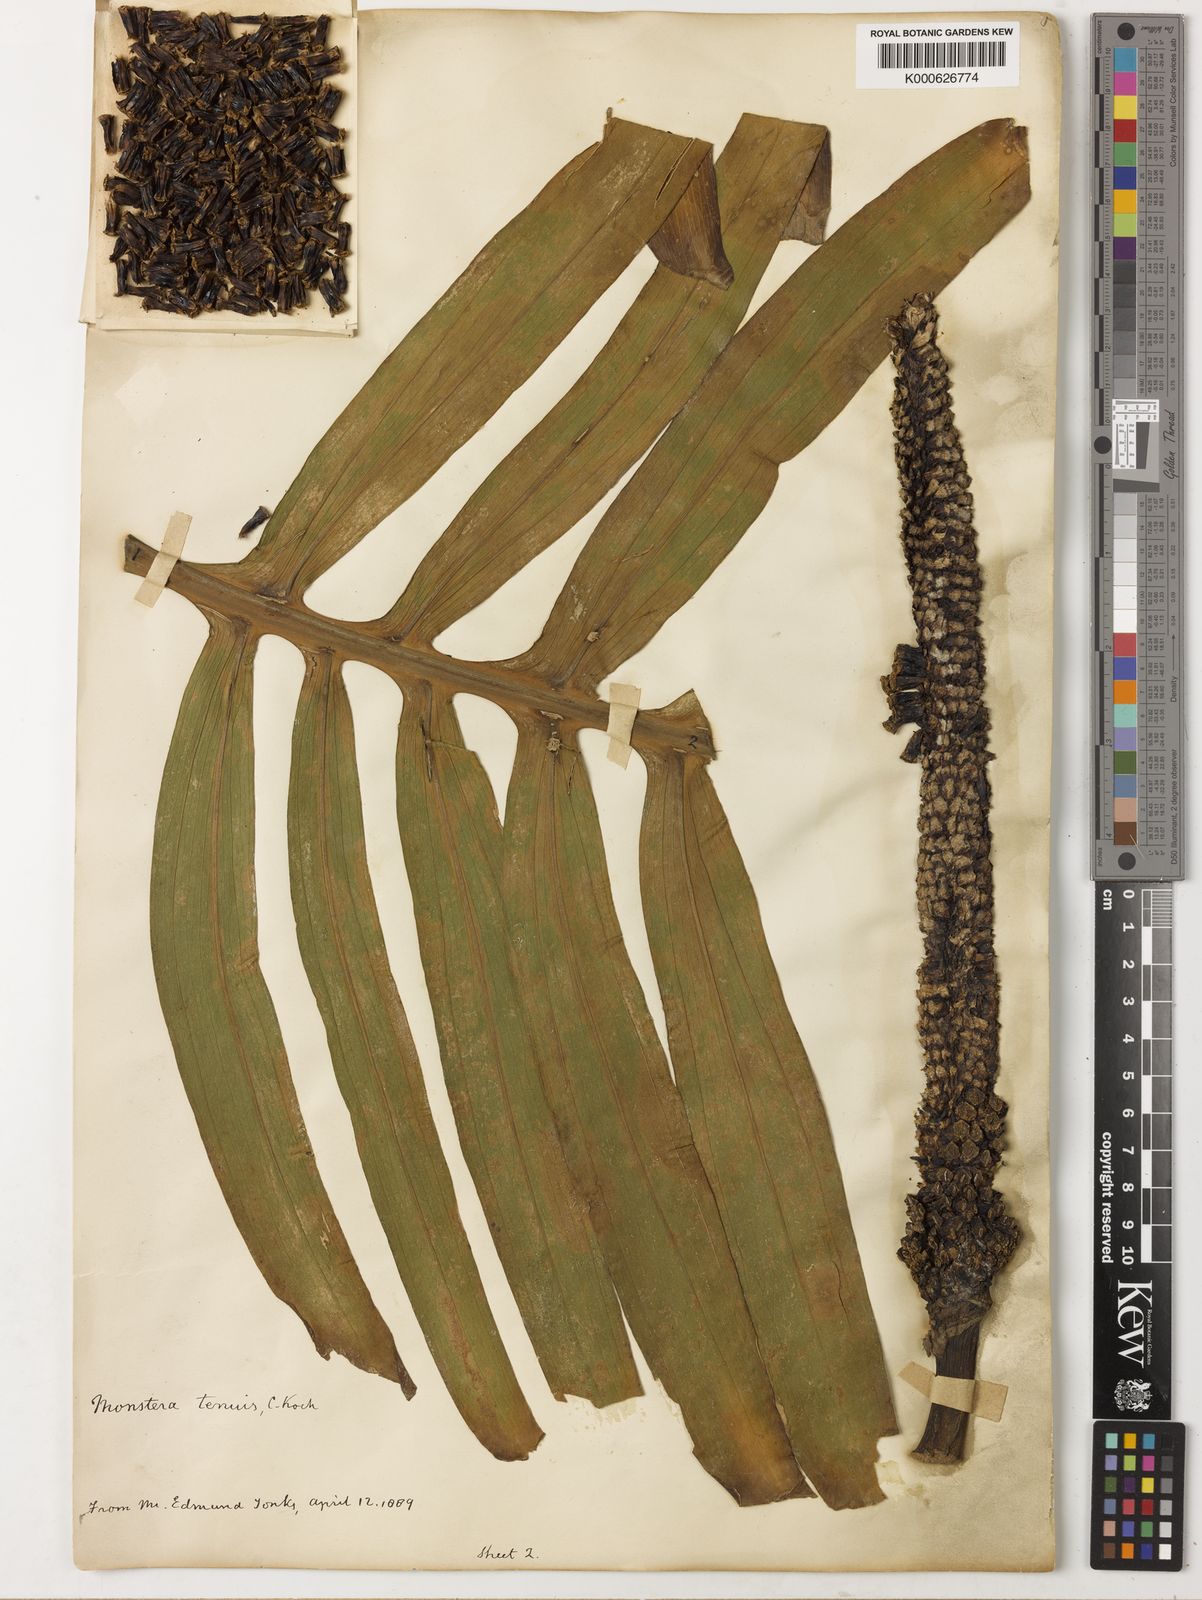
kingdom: Plantae
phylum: Tracheophyta
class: Liliopsida
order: Alismatales
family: Araceae
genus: Monstera
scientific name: Monstera tenuis
